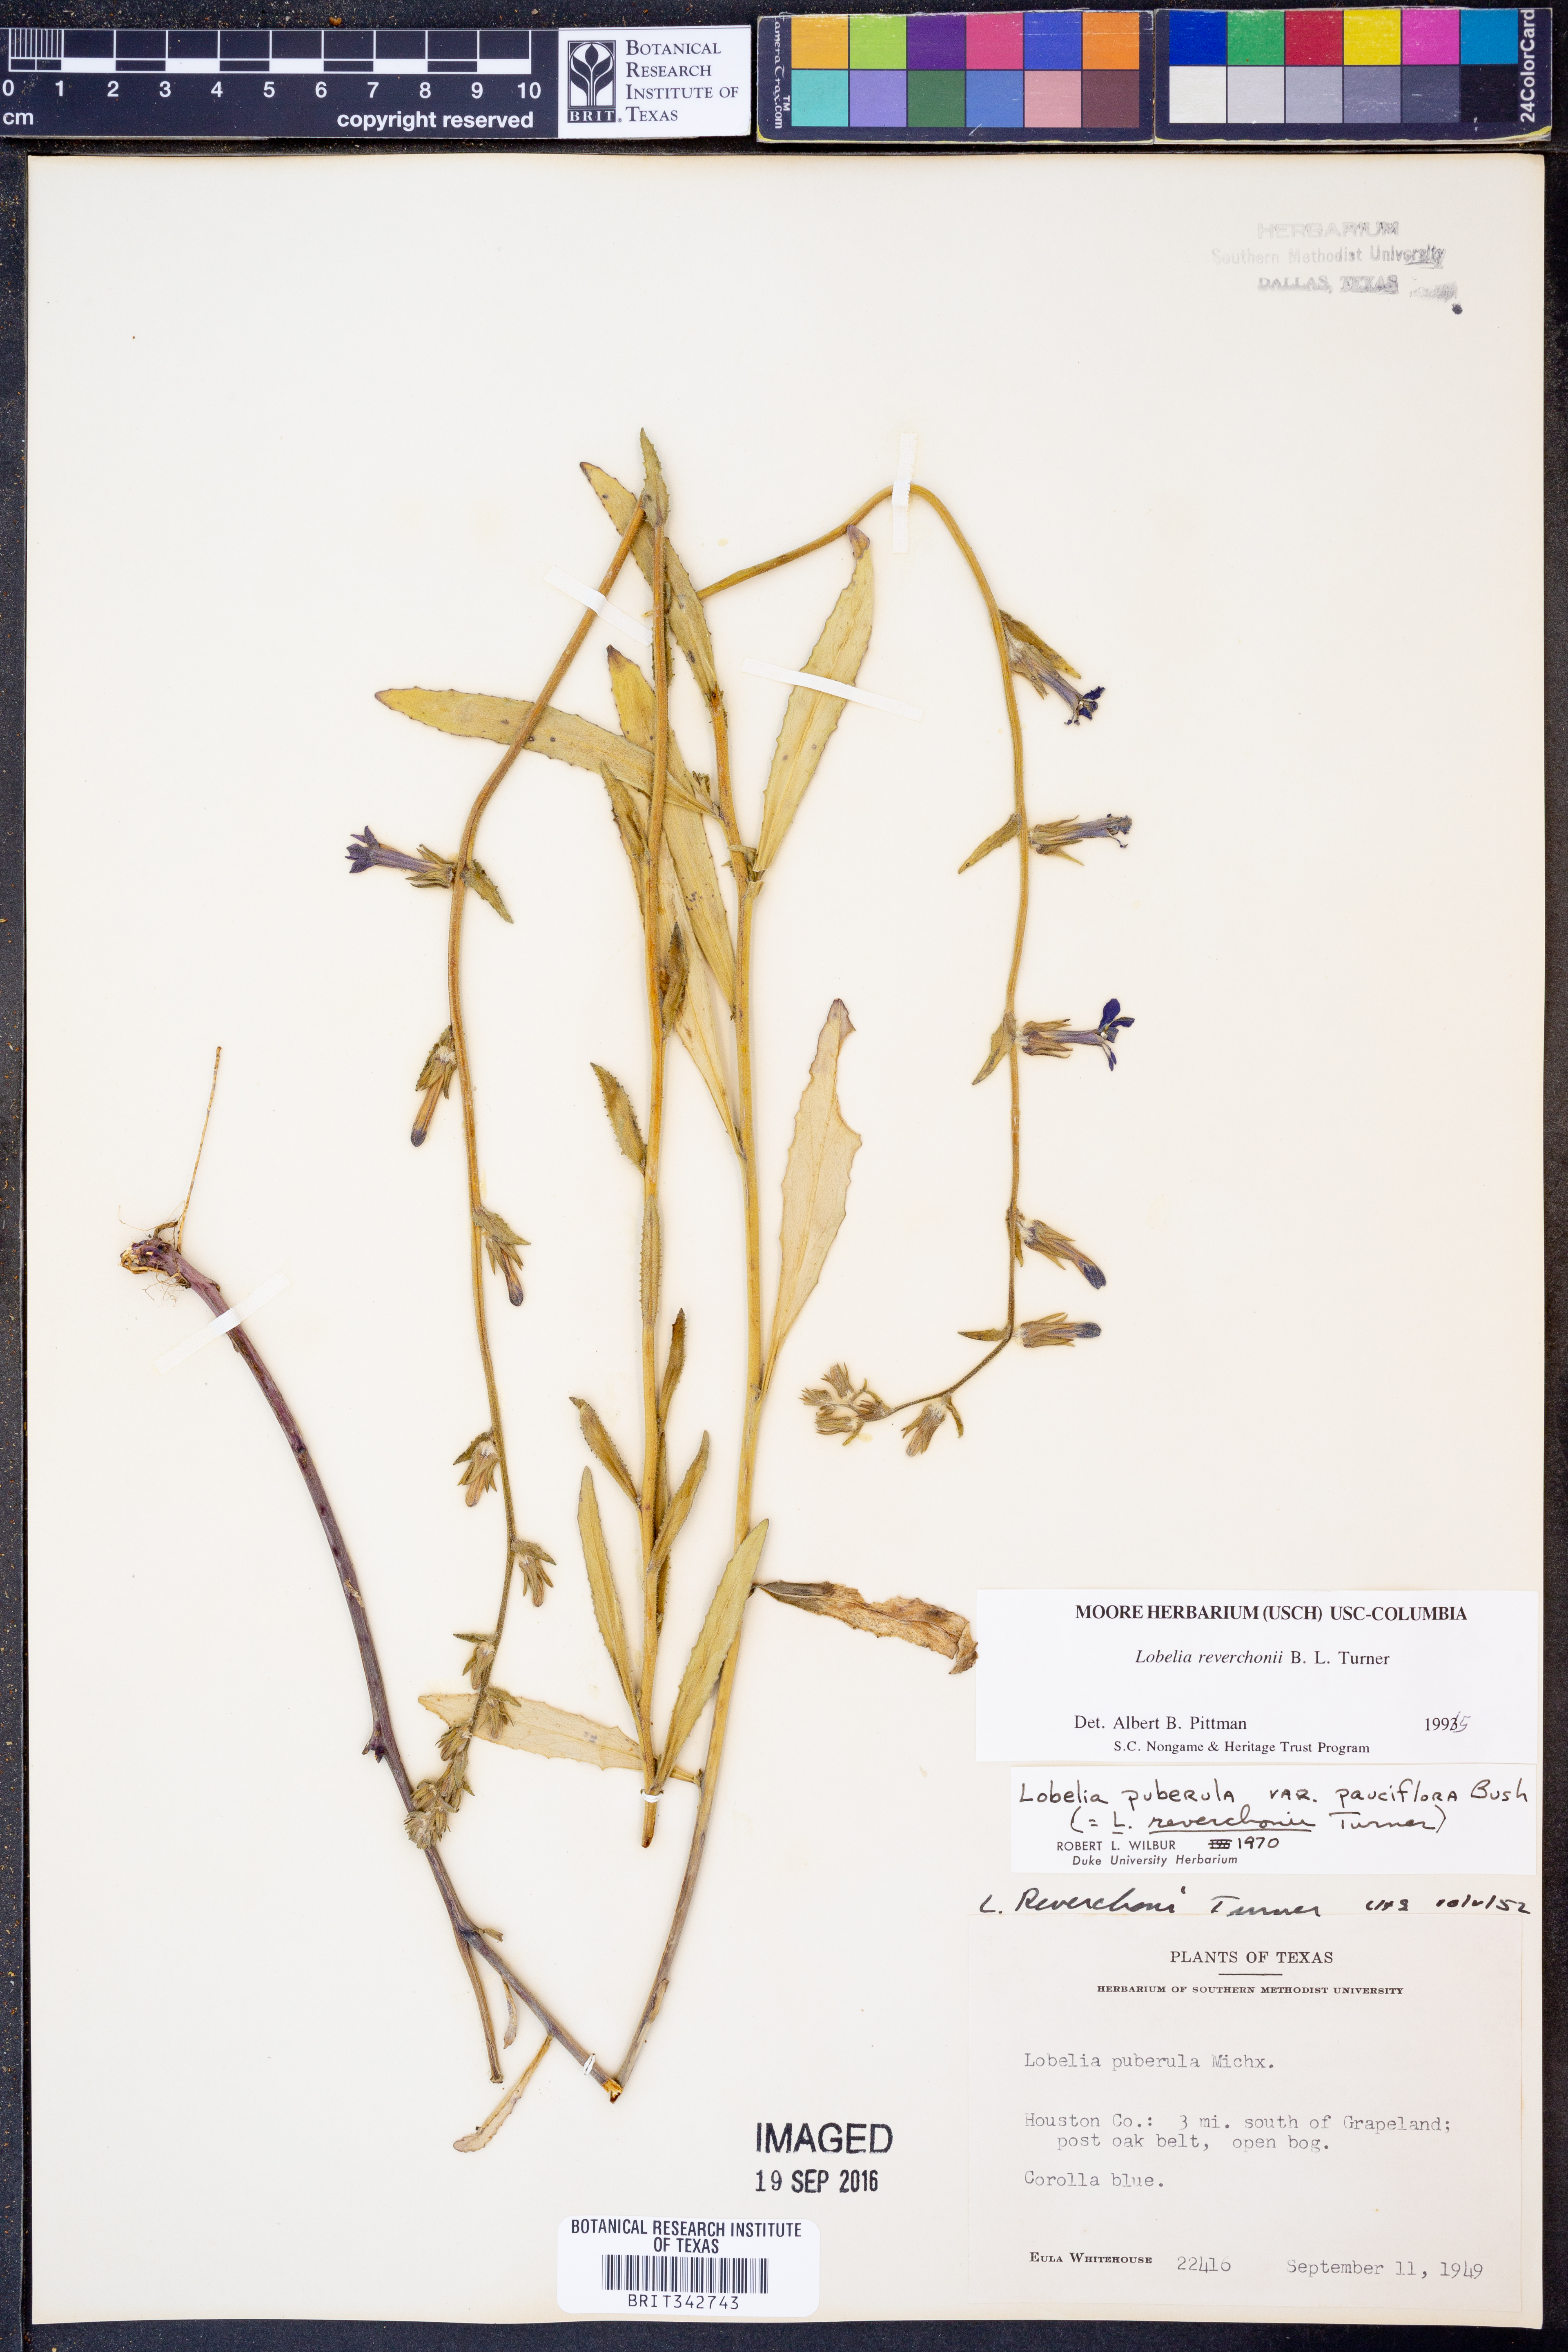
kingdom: Plantae
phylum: Tracheophyta
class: Magnoliopsida
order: Asterales
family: Campanulaceae
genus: Lobelia
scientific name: Lobelia reverchonii
